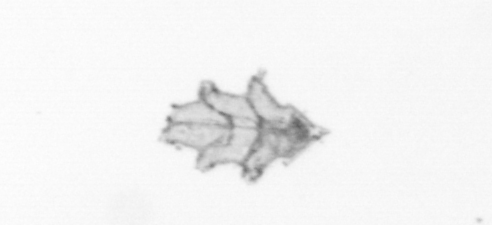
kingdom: Animalia
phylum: Cnidaria
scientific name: Cnidaria
